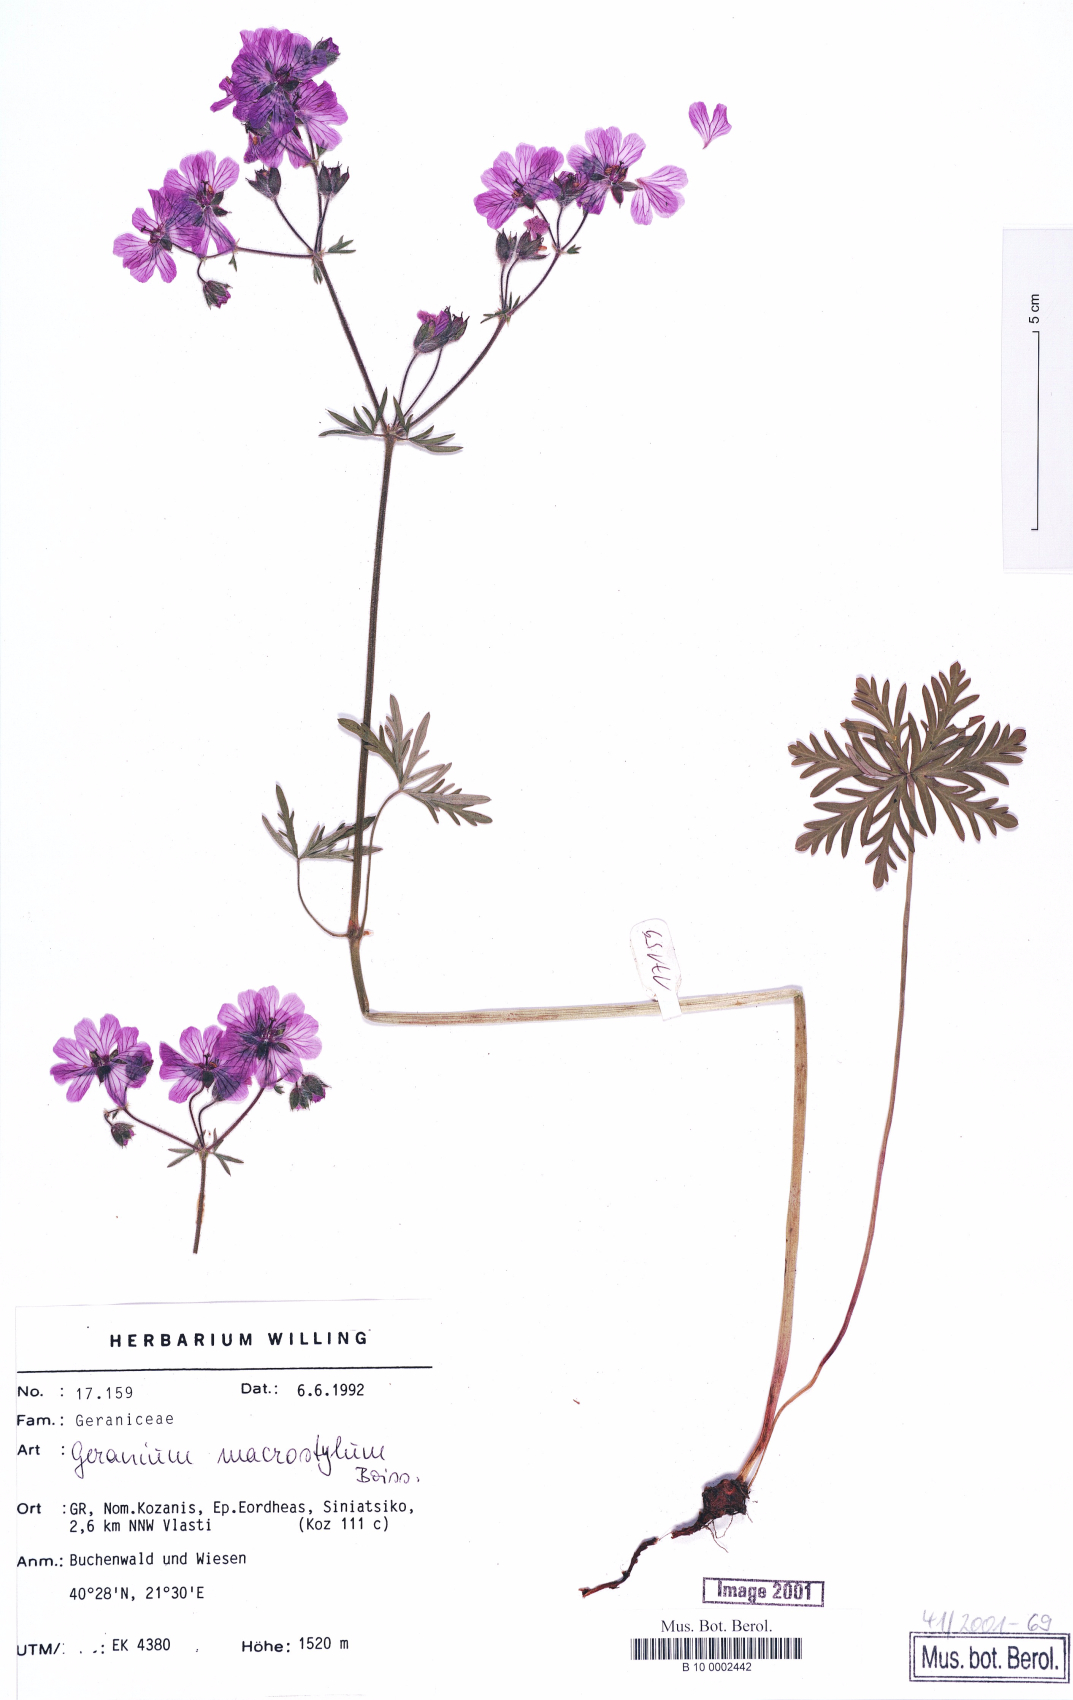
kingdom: Plantae
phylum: Tracheophyta
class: Magnoliopsida
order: Geraniales
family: Geraniaceae
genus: Geranium
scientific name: Geranium macrostylum
